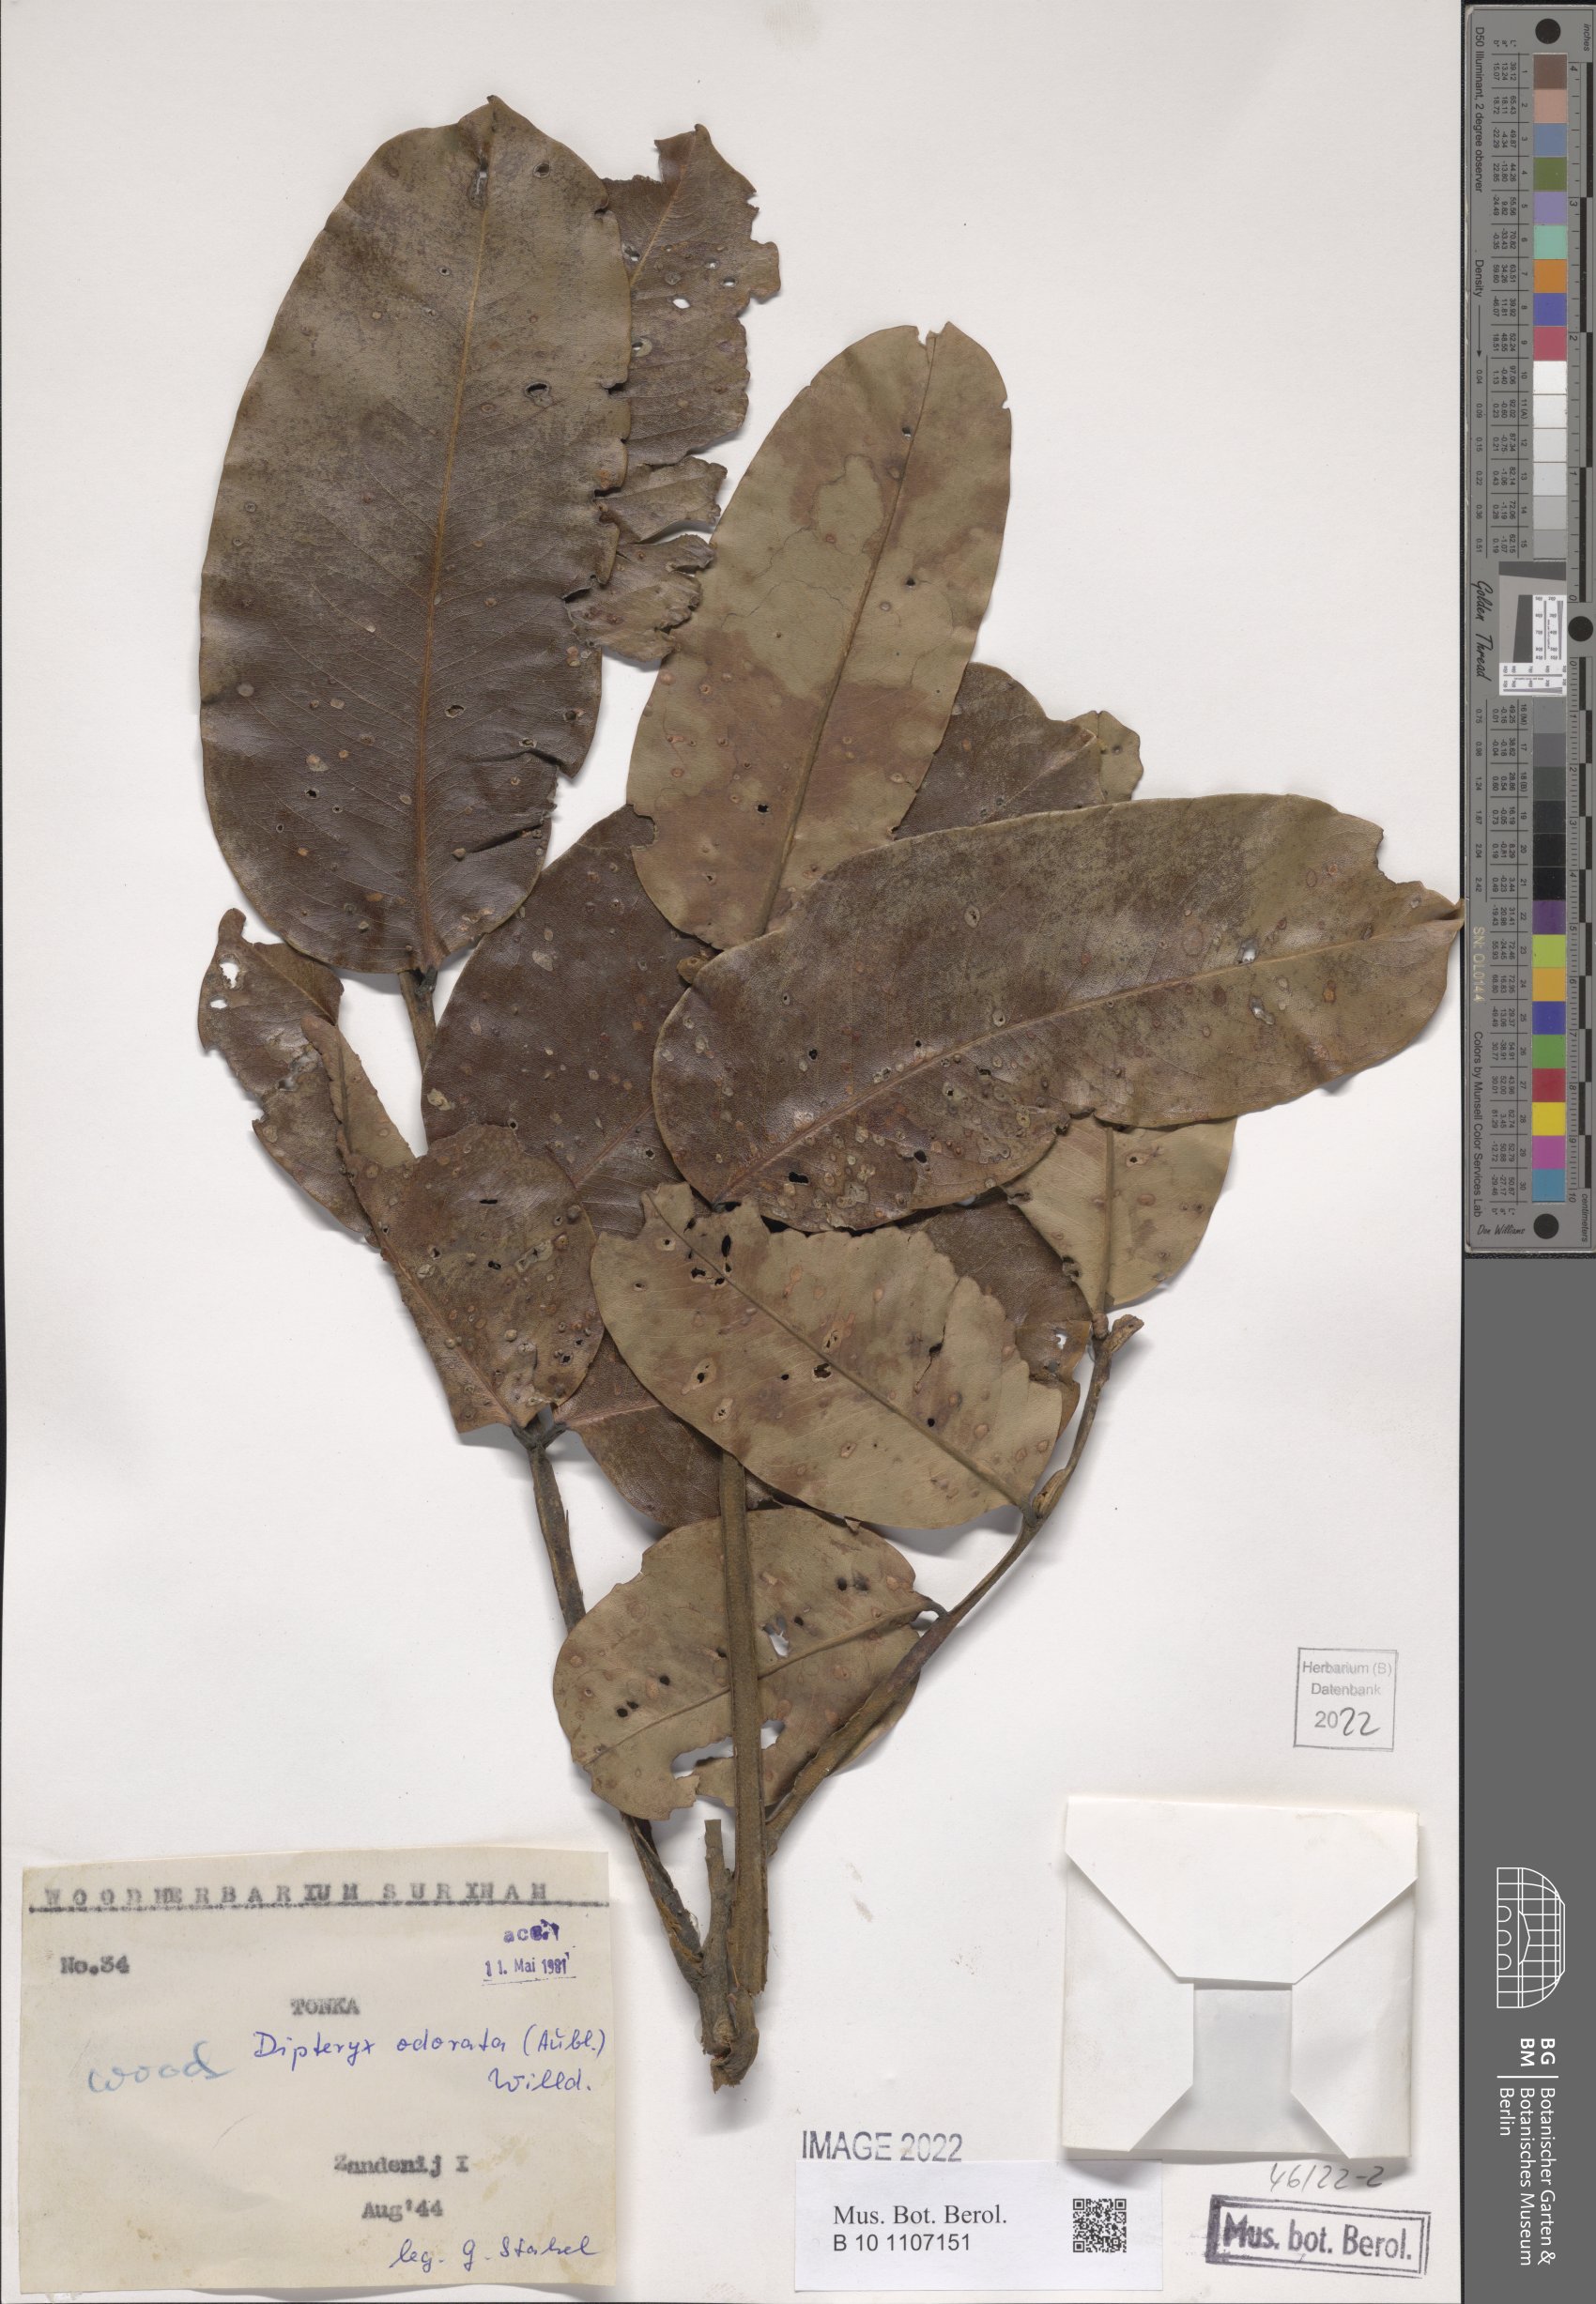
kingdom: Plantae
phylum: Tracheophyta
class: Magnoliopsida
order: Fabales
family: Fabaceae
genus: Dipteryx
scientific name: Dipteryx odorata
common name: Tonka
